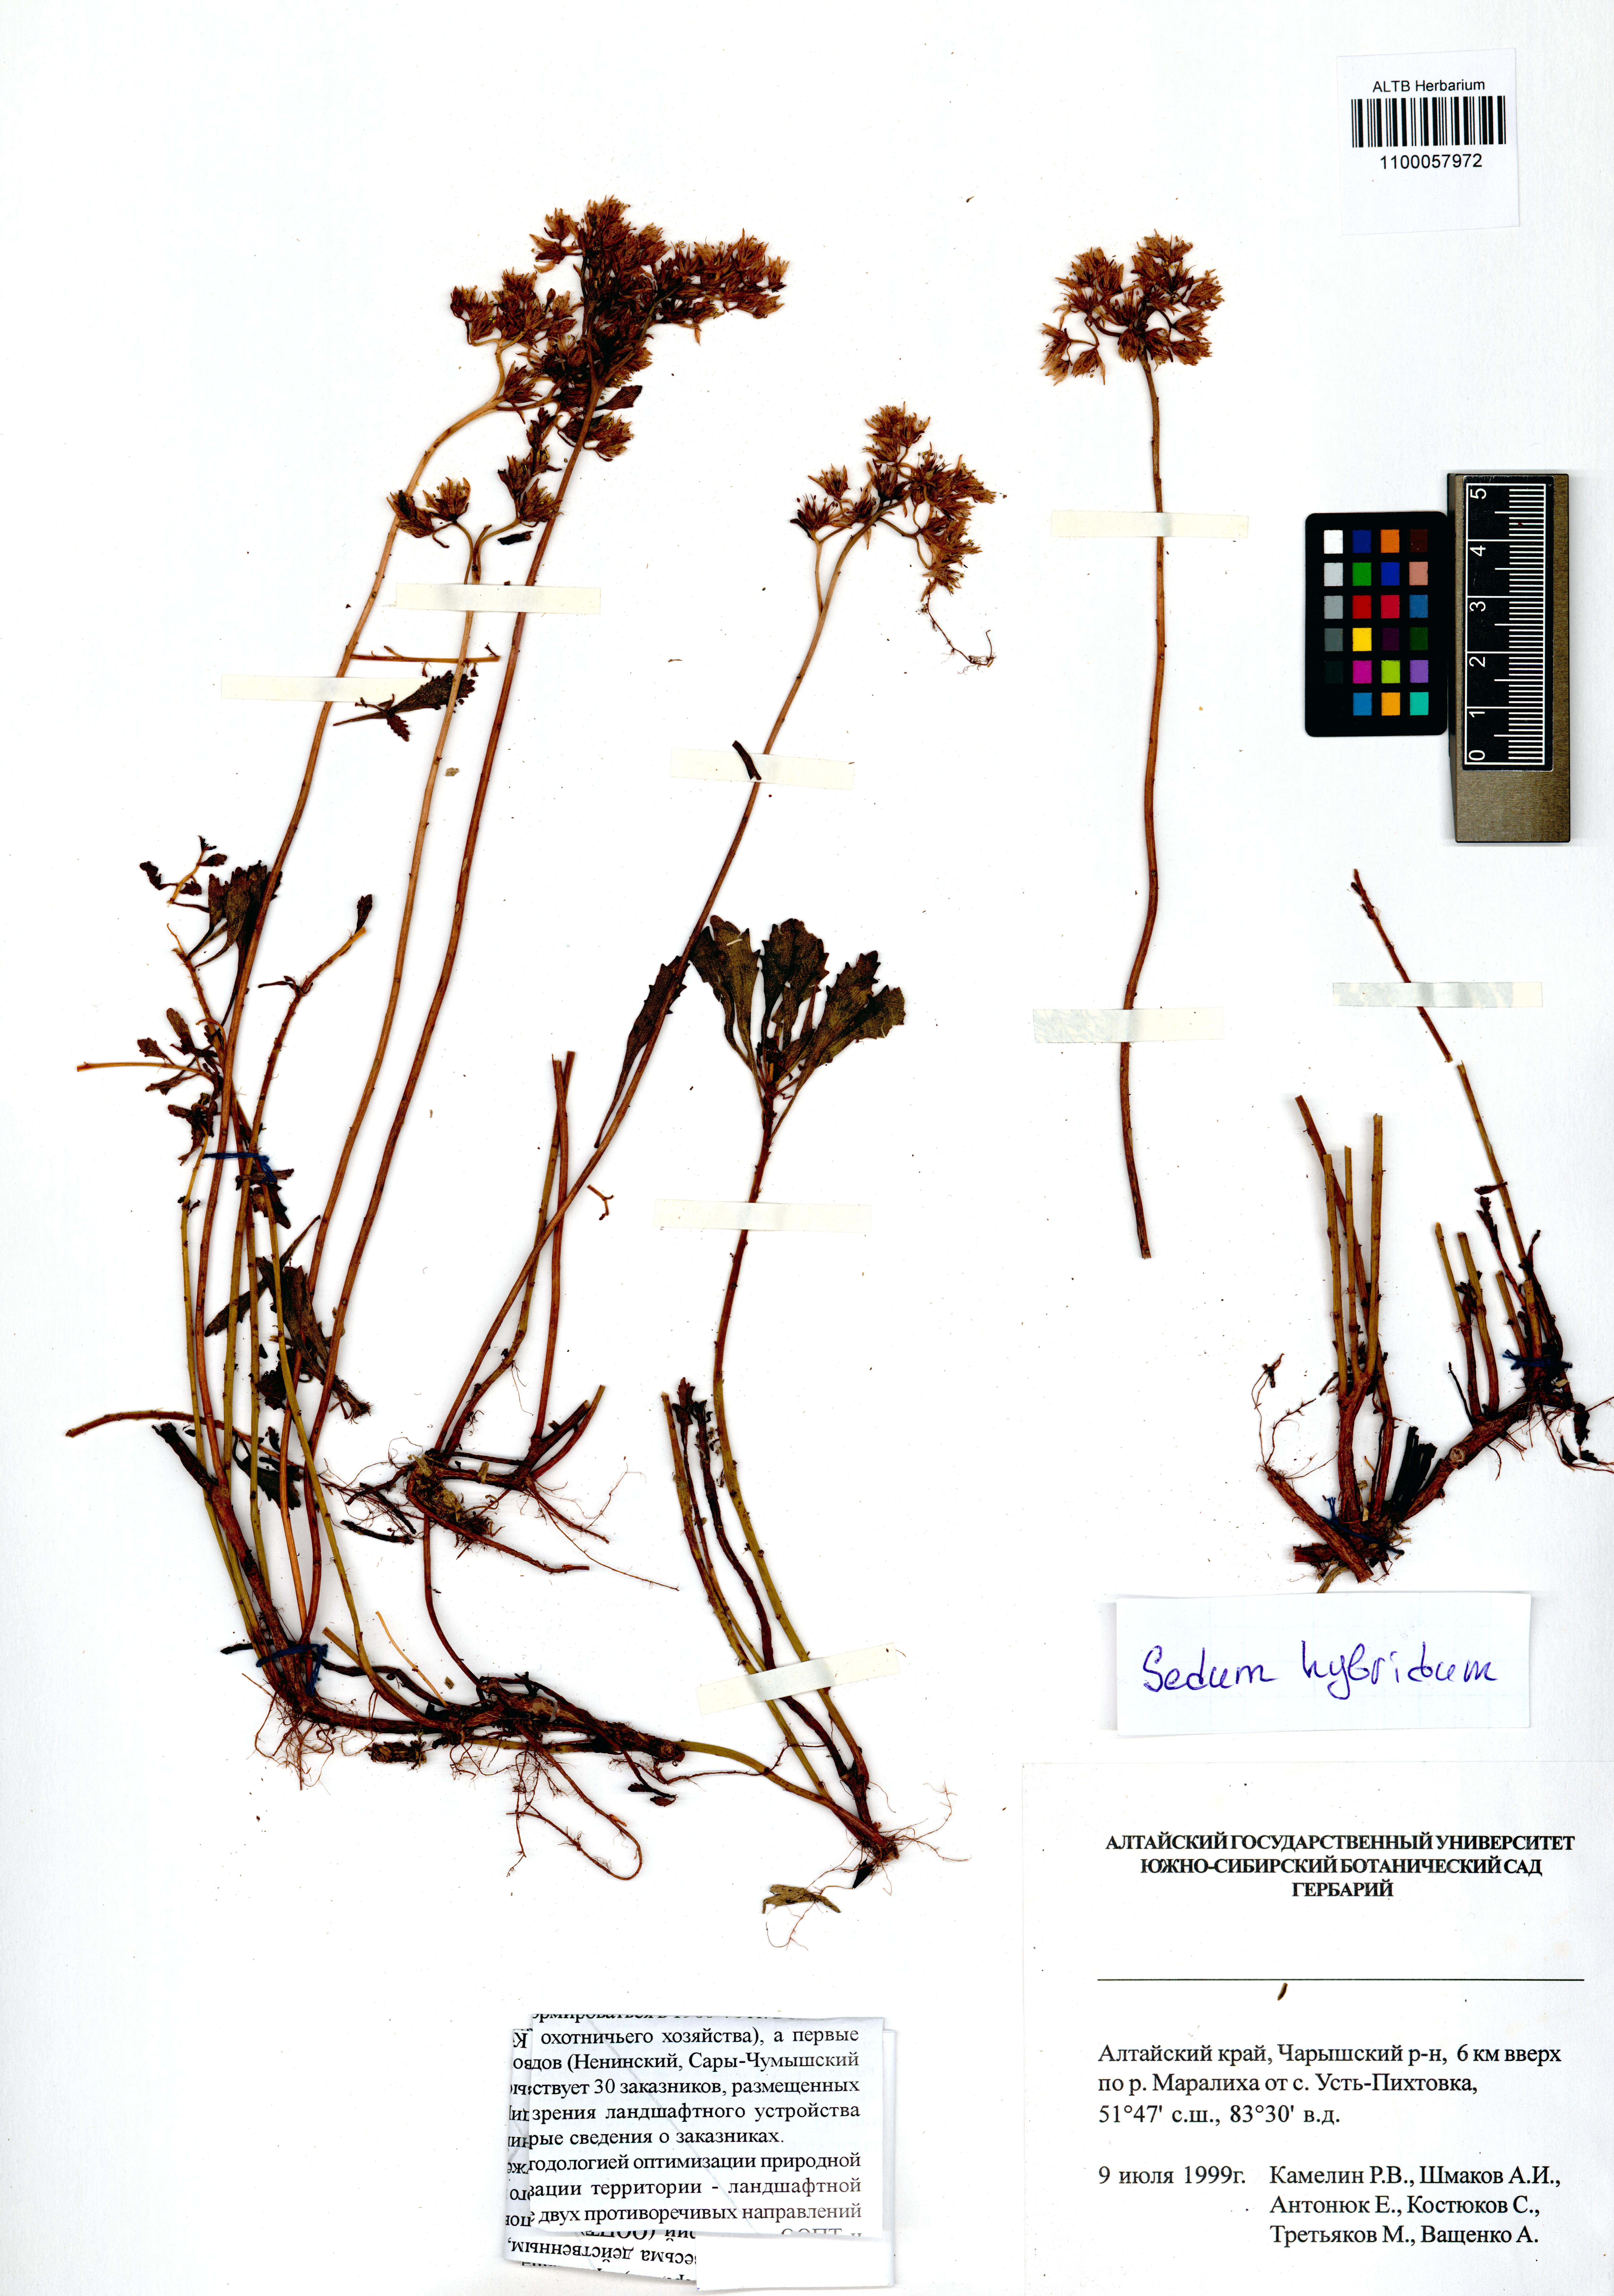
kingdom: Plantae
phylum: Tracheophyta
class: Magnoliopsida
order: Saxifragales
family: Crassulaceae
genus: Phedimus
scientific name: Phedimus hybridus
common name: Hybrid stonecrop
